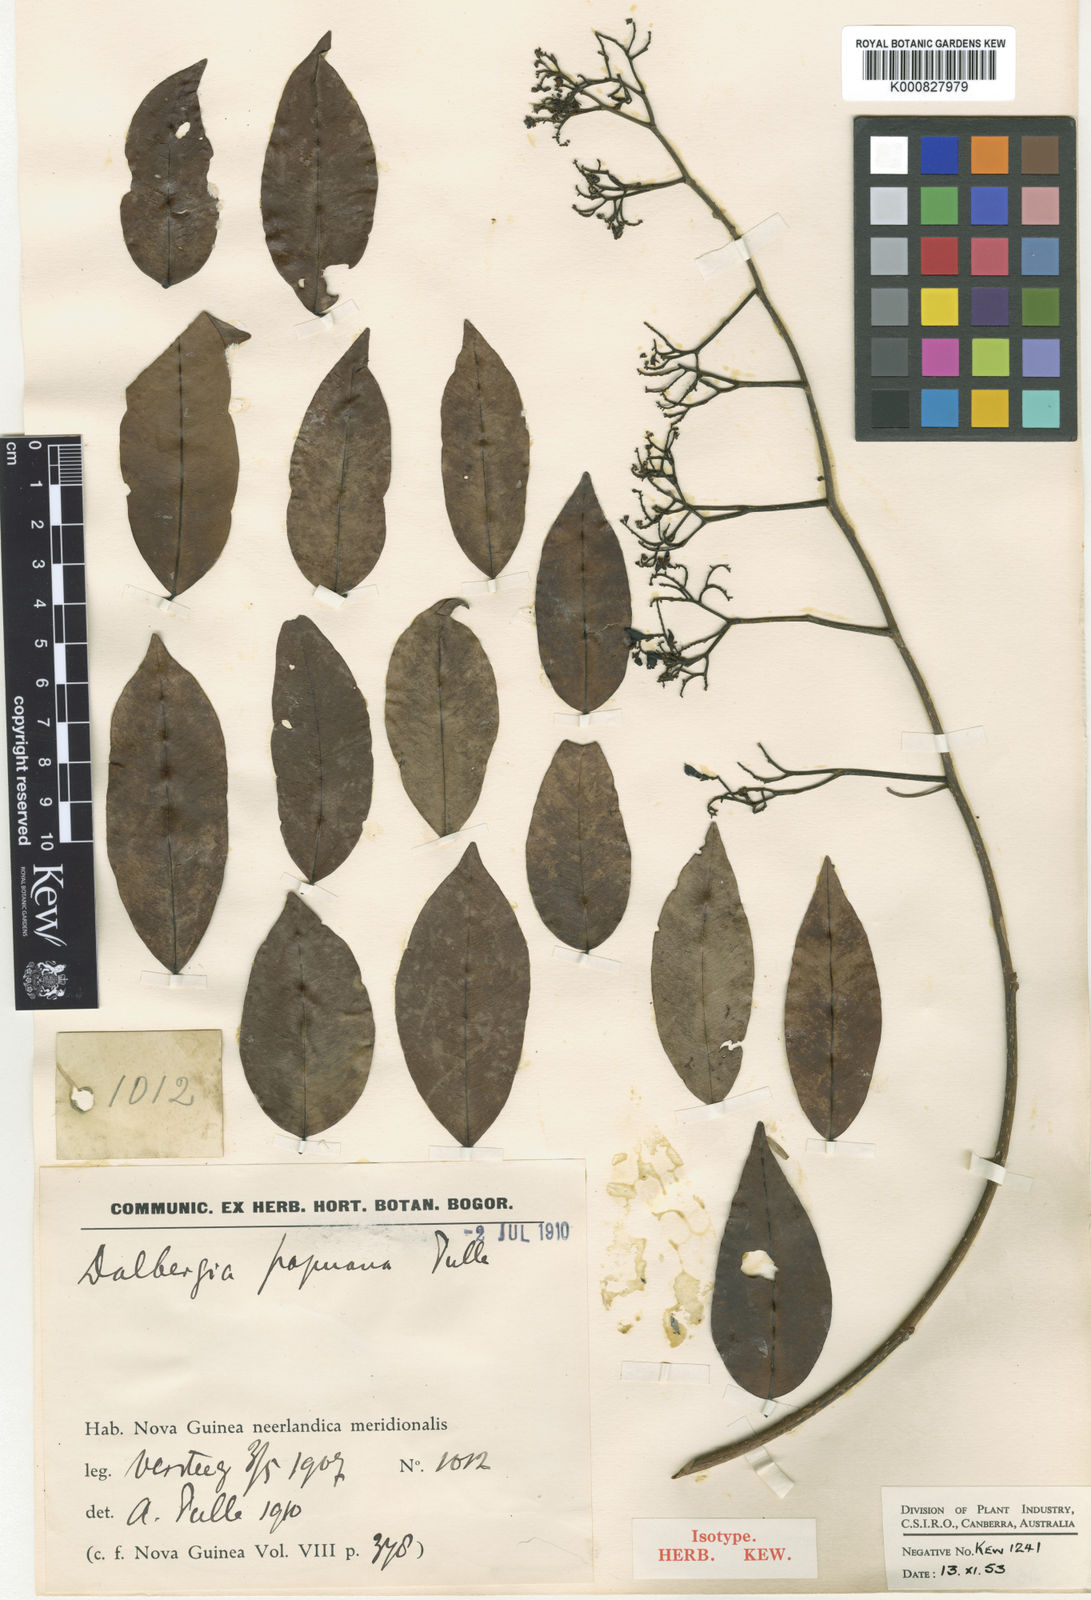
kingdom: Plantae
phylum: Tracheophyta
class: Magnoliopsida
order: Fabales
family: Fabaceae
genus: Dalbergia
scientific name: Dalbergia albertisii
